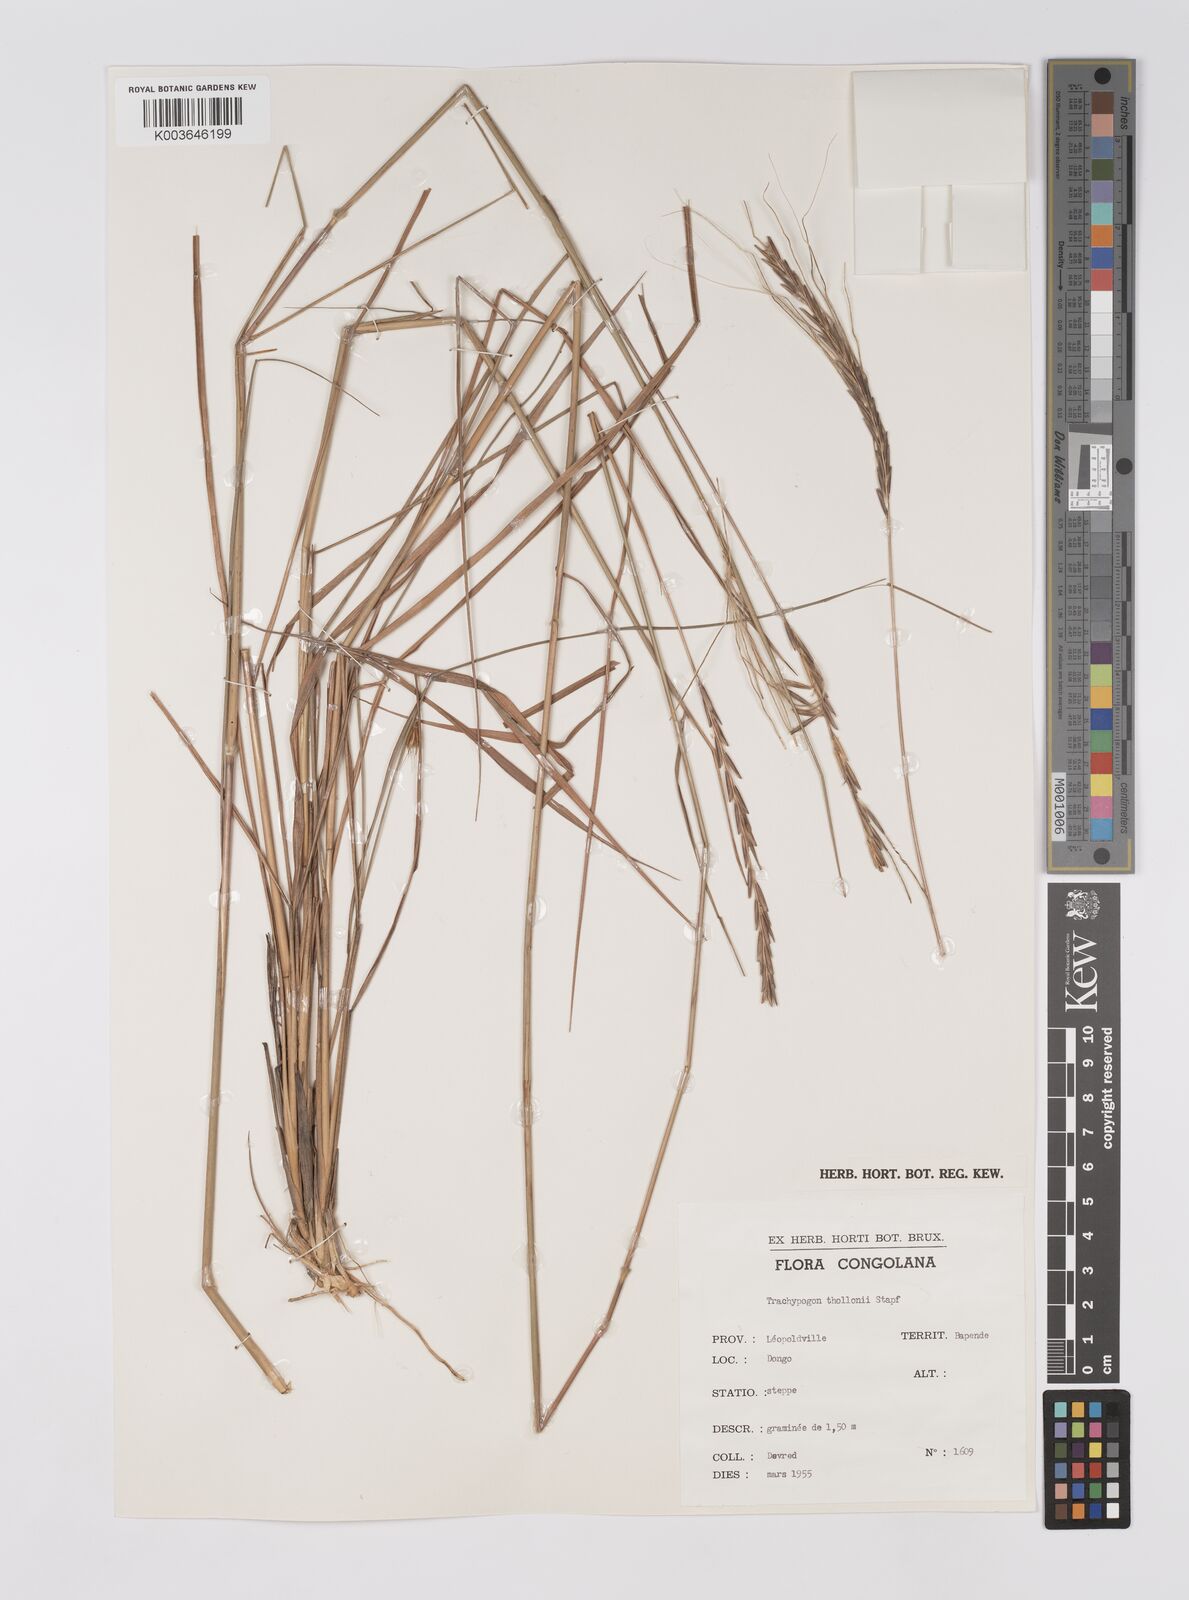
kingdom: Plantae
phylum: Tracheophyta
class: Liliopsida
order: Poales
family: Poaceae
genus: Trachypogon
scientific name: Trachypogon spicatus
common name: Crinkle-awn
